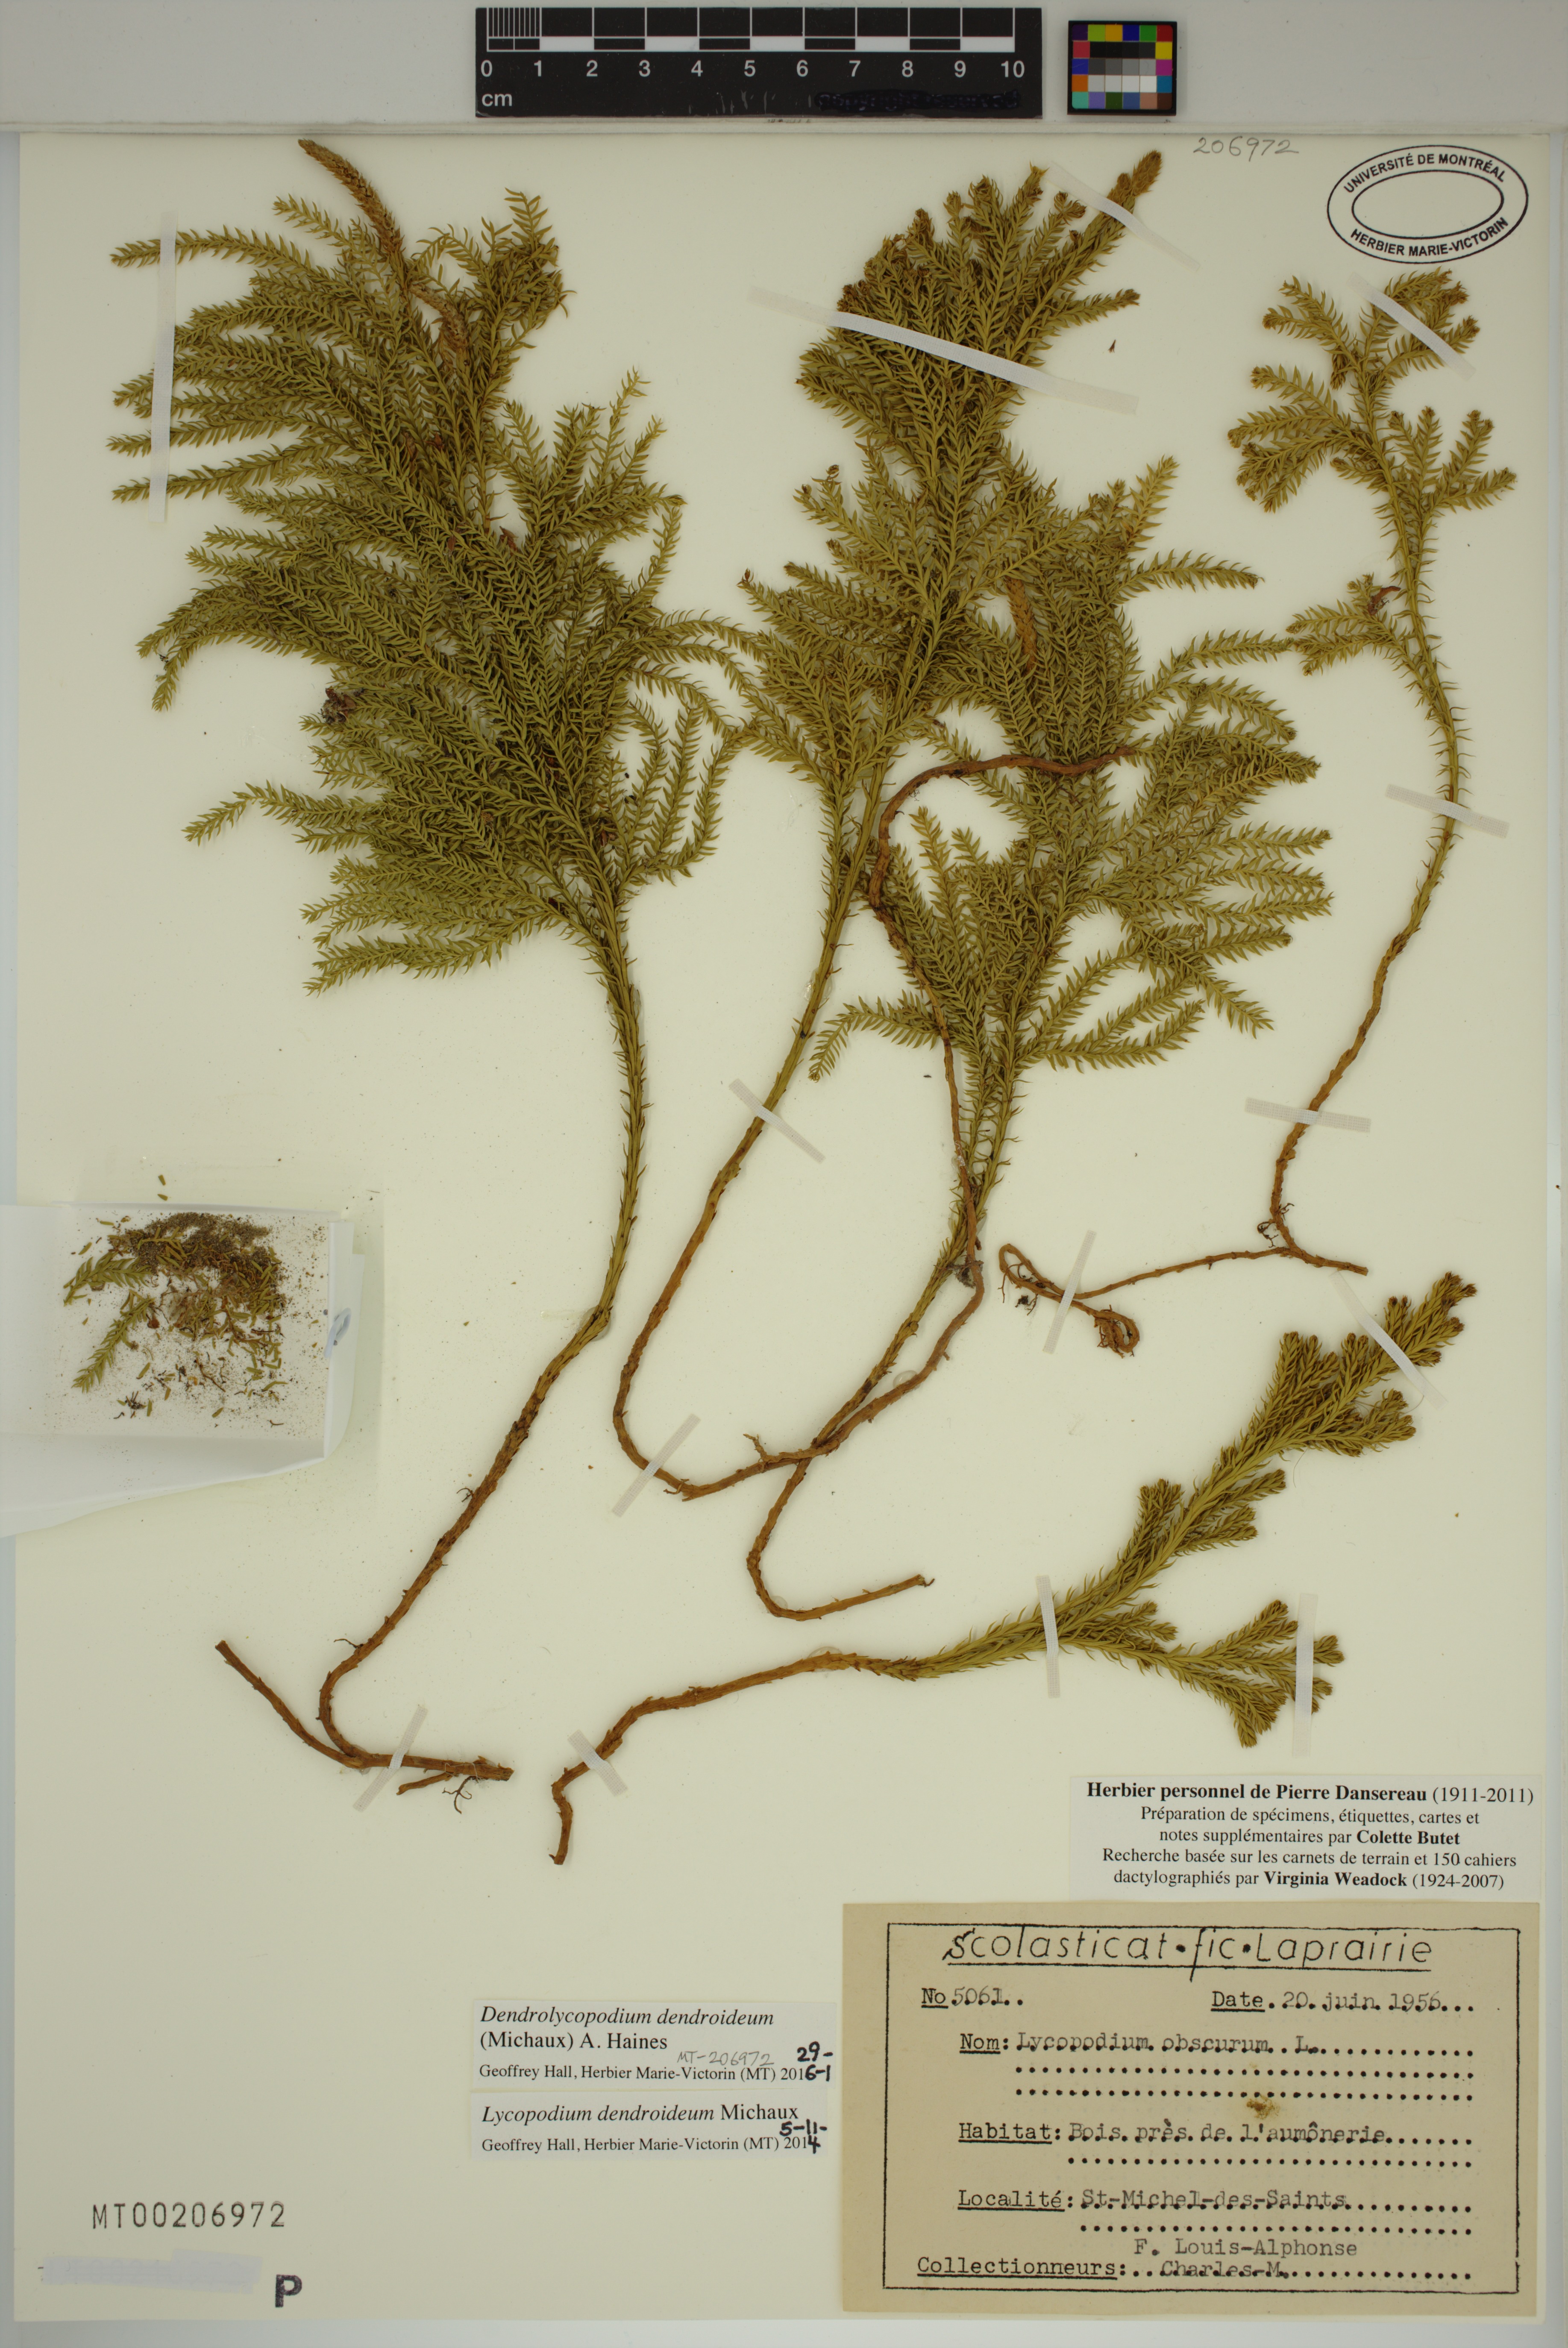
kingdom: Plantae
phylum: Tracheophyta
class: Lycopodiopsida
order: Lycopodiales
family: Lycopodiaceae
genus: Dendrolycopodium
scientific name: Dendrolycopodium dendroideum
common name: Northern tree-clubmoss
